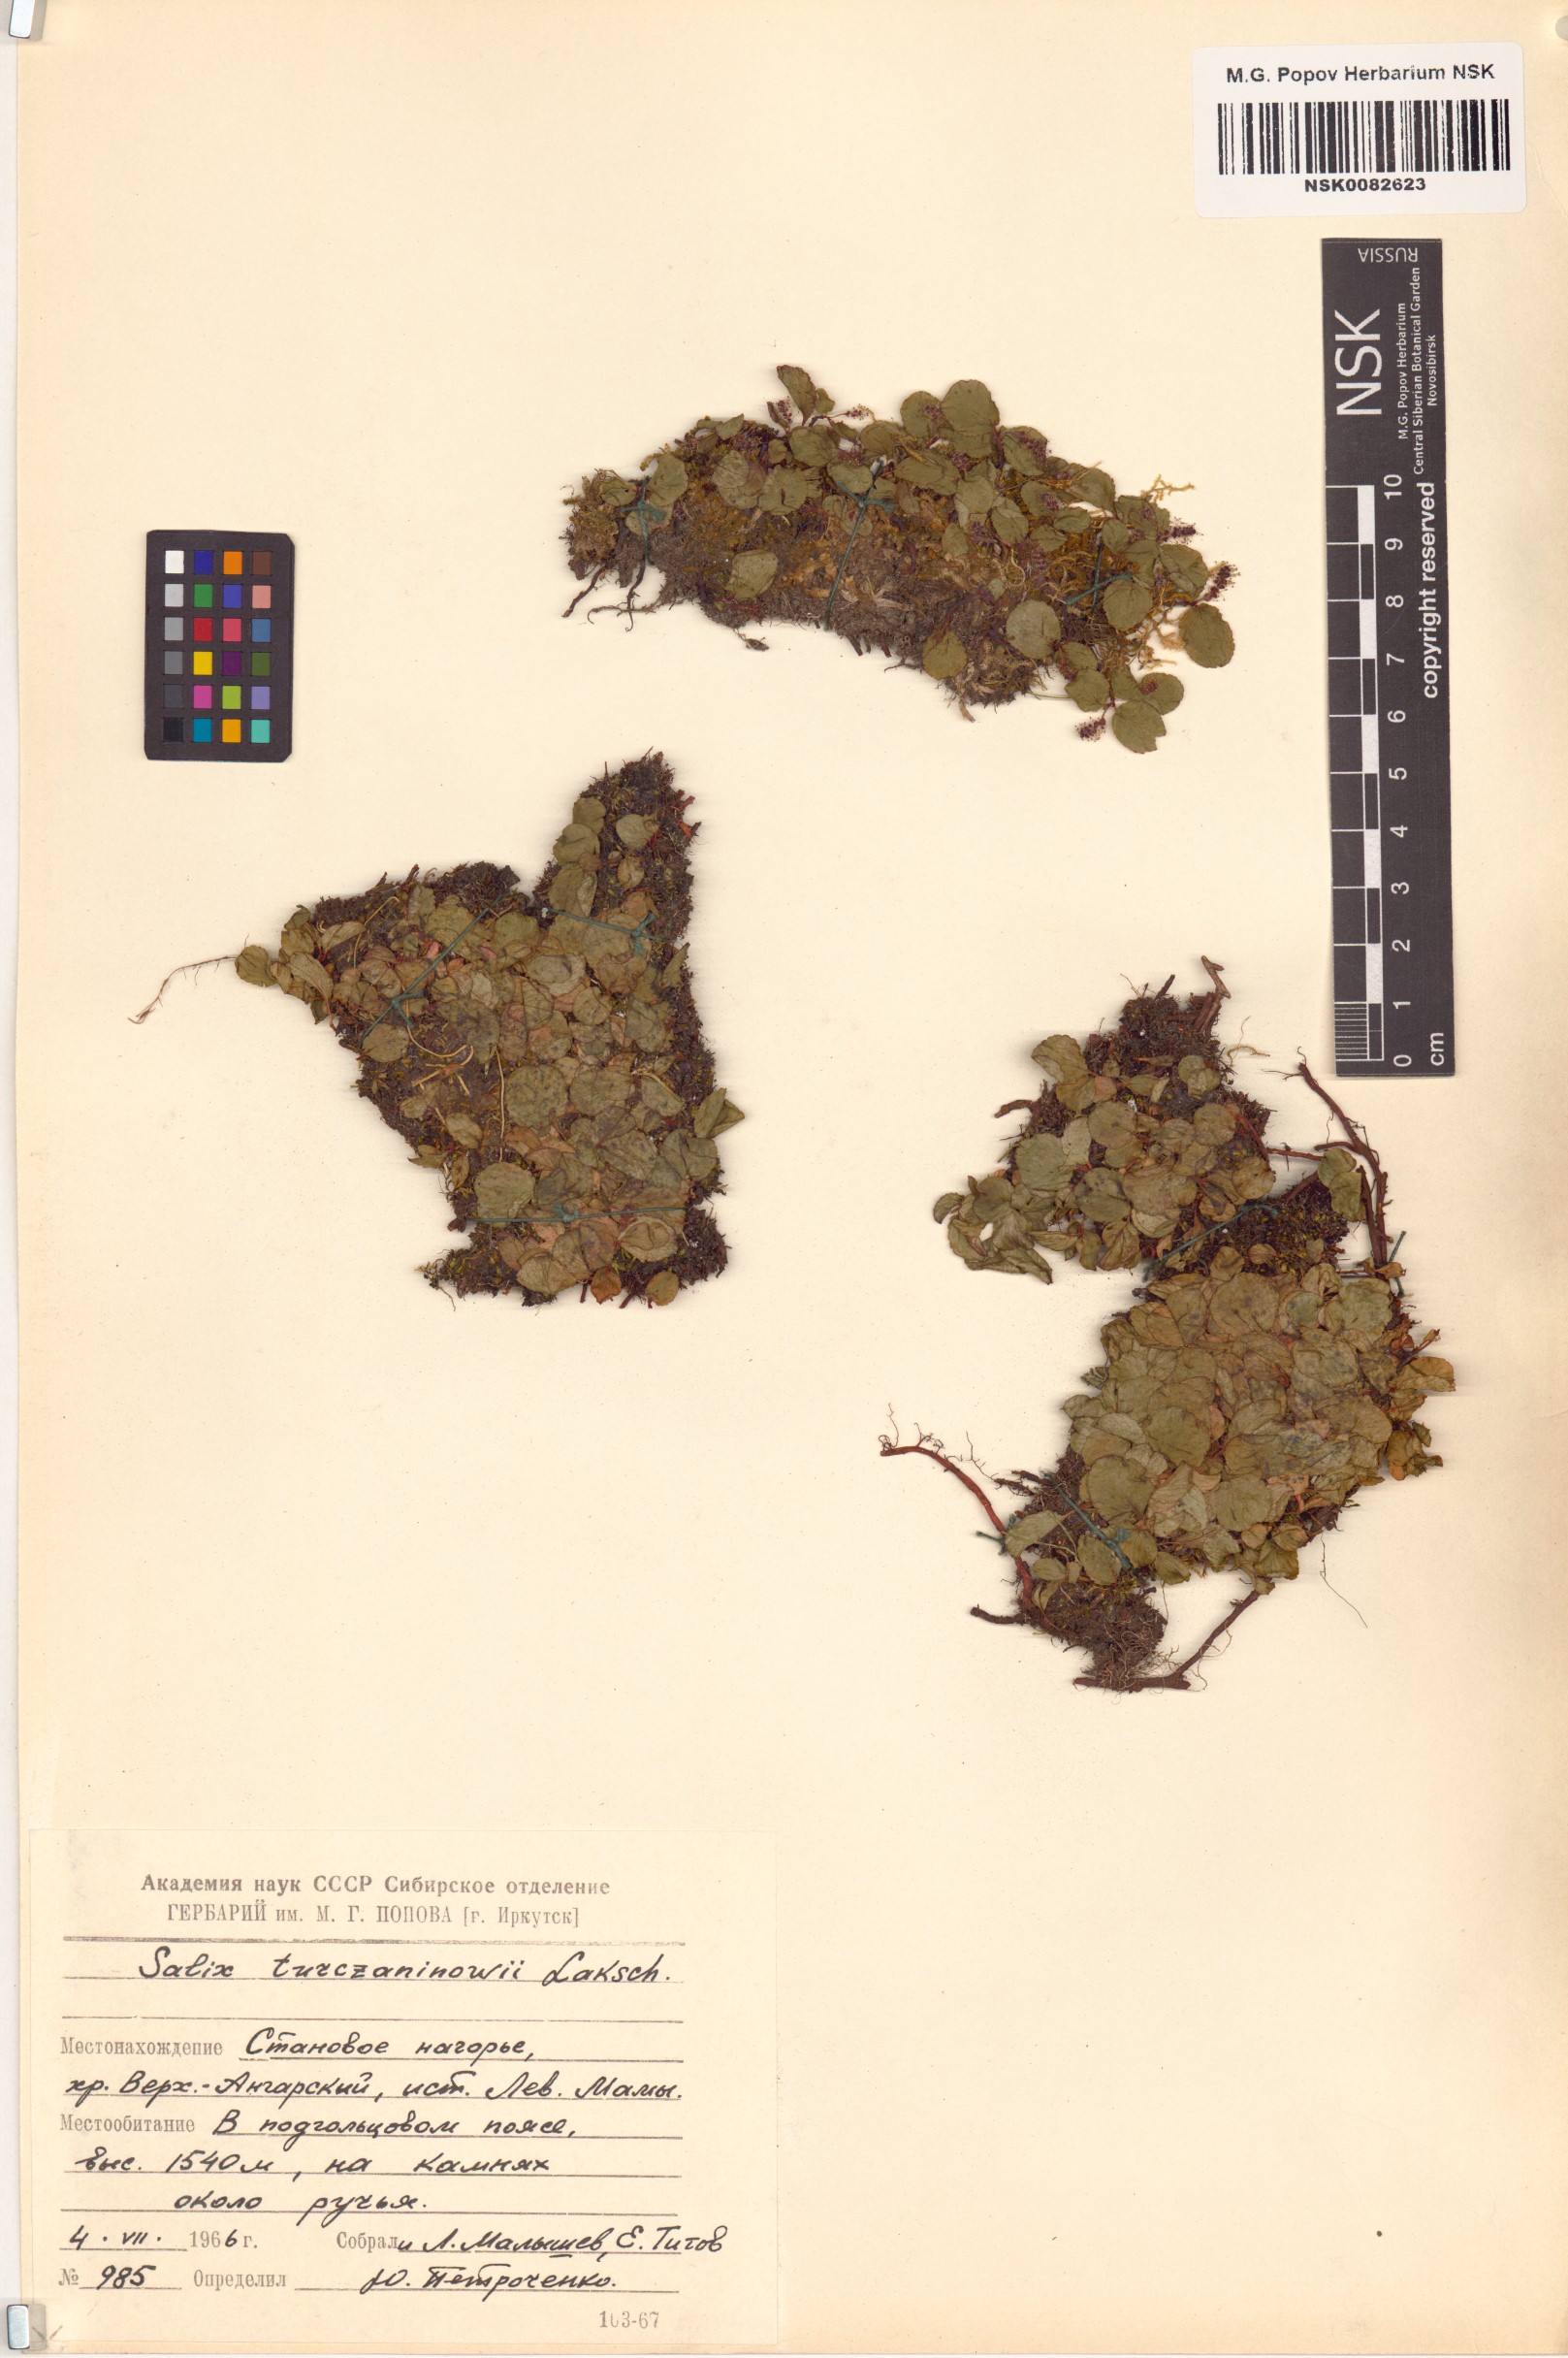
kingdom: Plantae
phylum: Tracheophyta
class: Magnoliopsida
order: Malpighiales
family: Salicaceae
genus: Salix
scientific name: Salix turczaninowii
